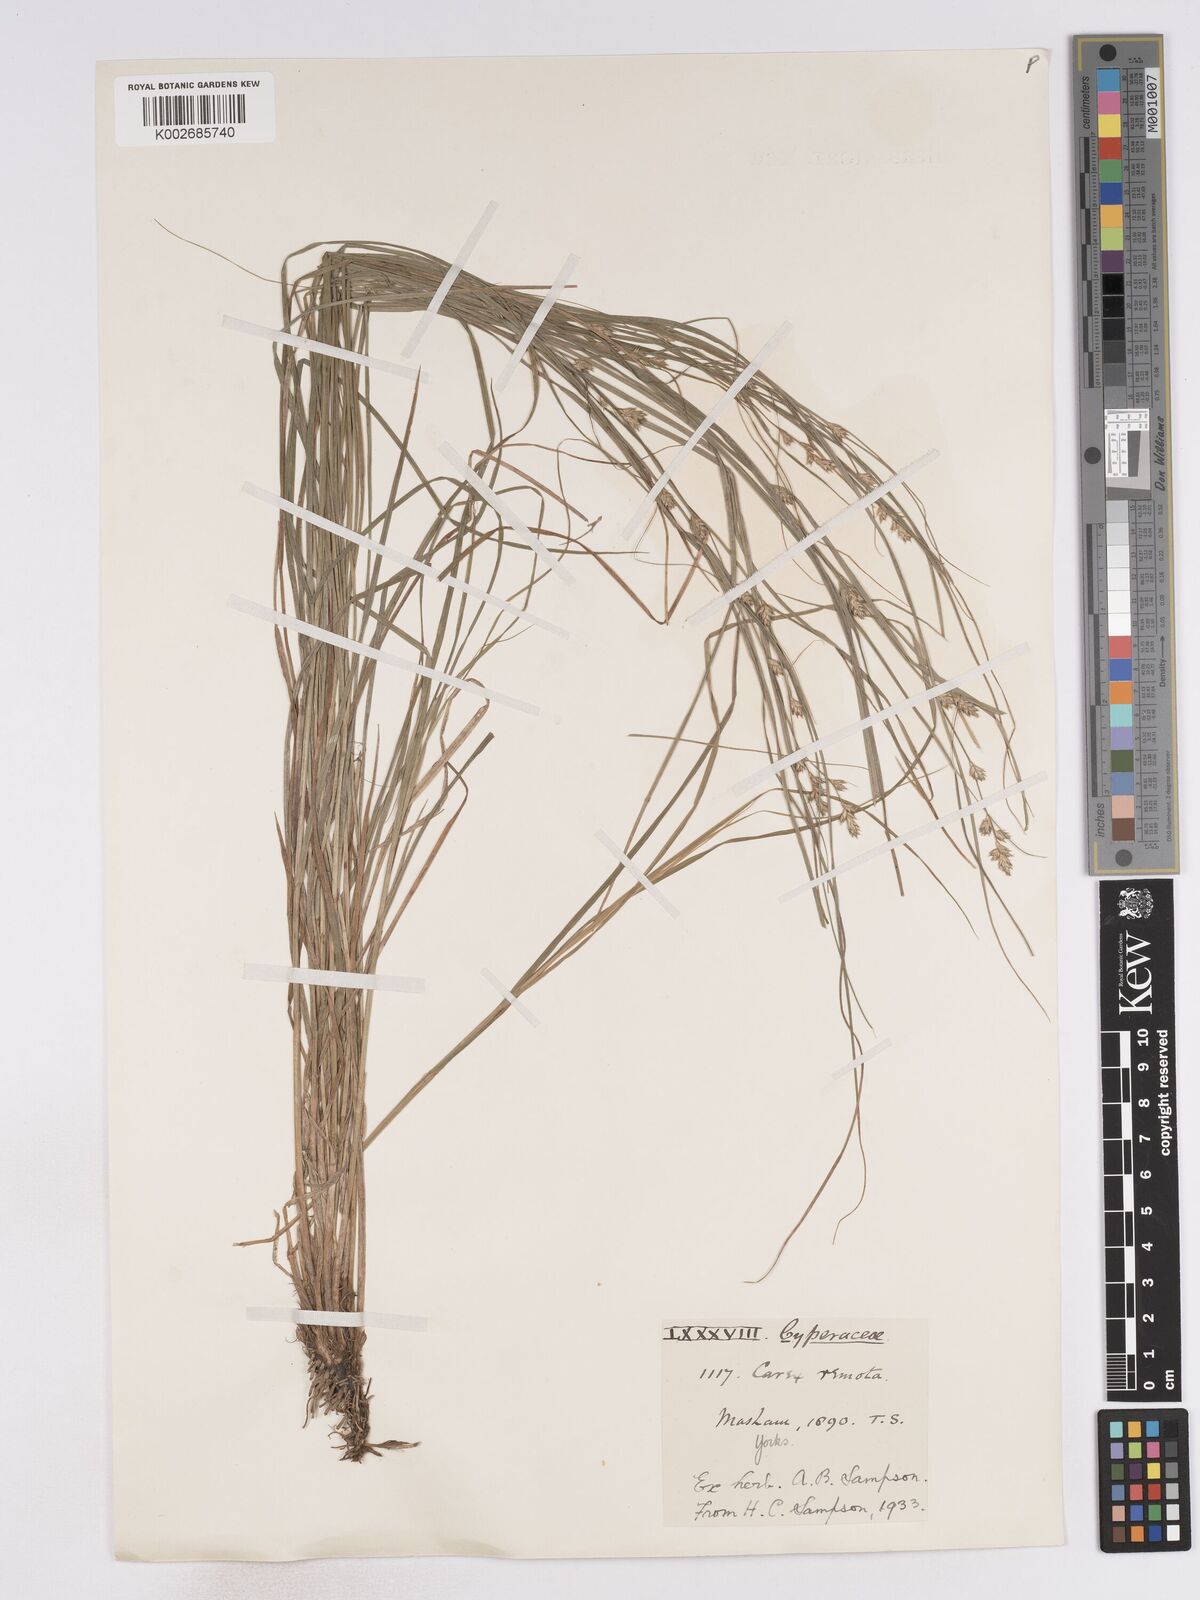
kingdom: Plantae
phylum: Tracheophyta
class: Liliopsida
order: Poales
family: Cyperaceae
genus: Carex
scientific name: Carex remota
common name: Remote sedge
